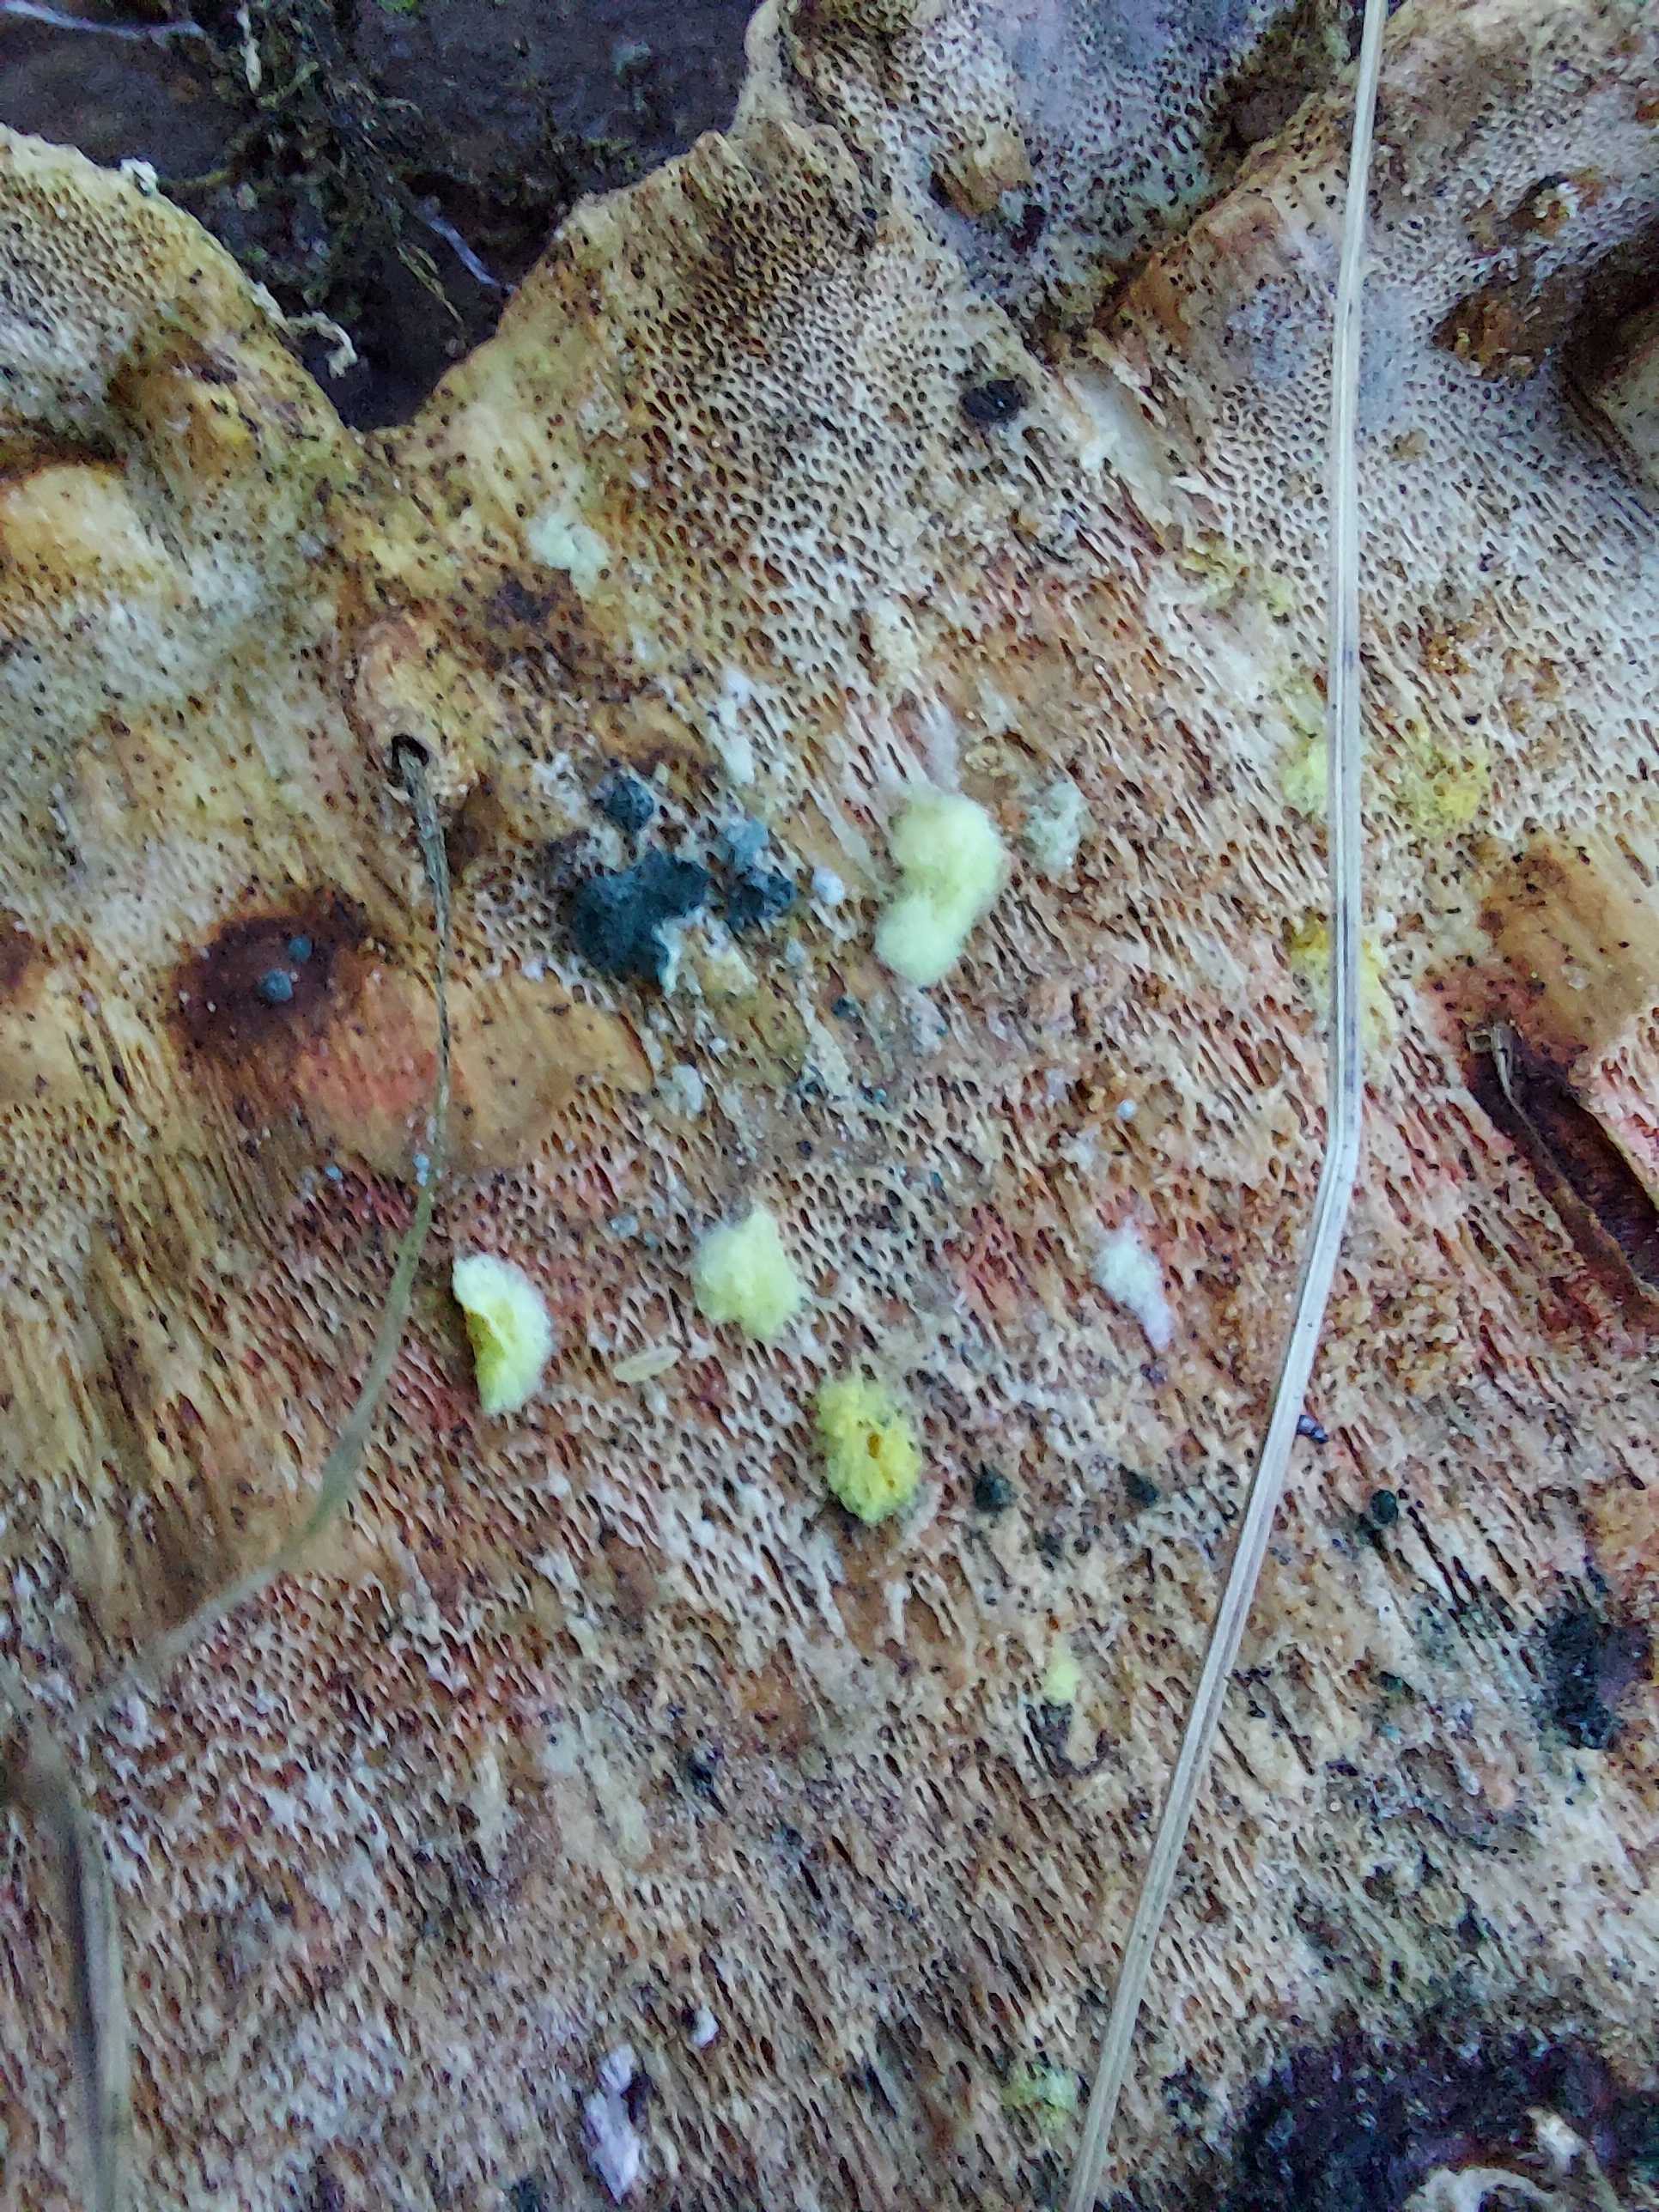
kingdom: Fungi
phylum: Ascomycota
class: Sordariomycetes
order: Hypocreales
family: Hypocreaceae
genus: Trichoderma
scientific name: Trichoderma
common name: kødkerne
